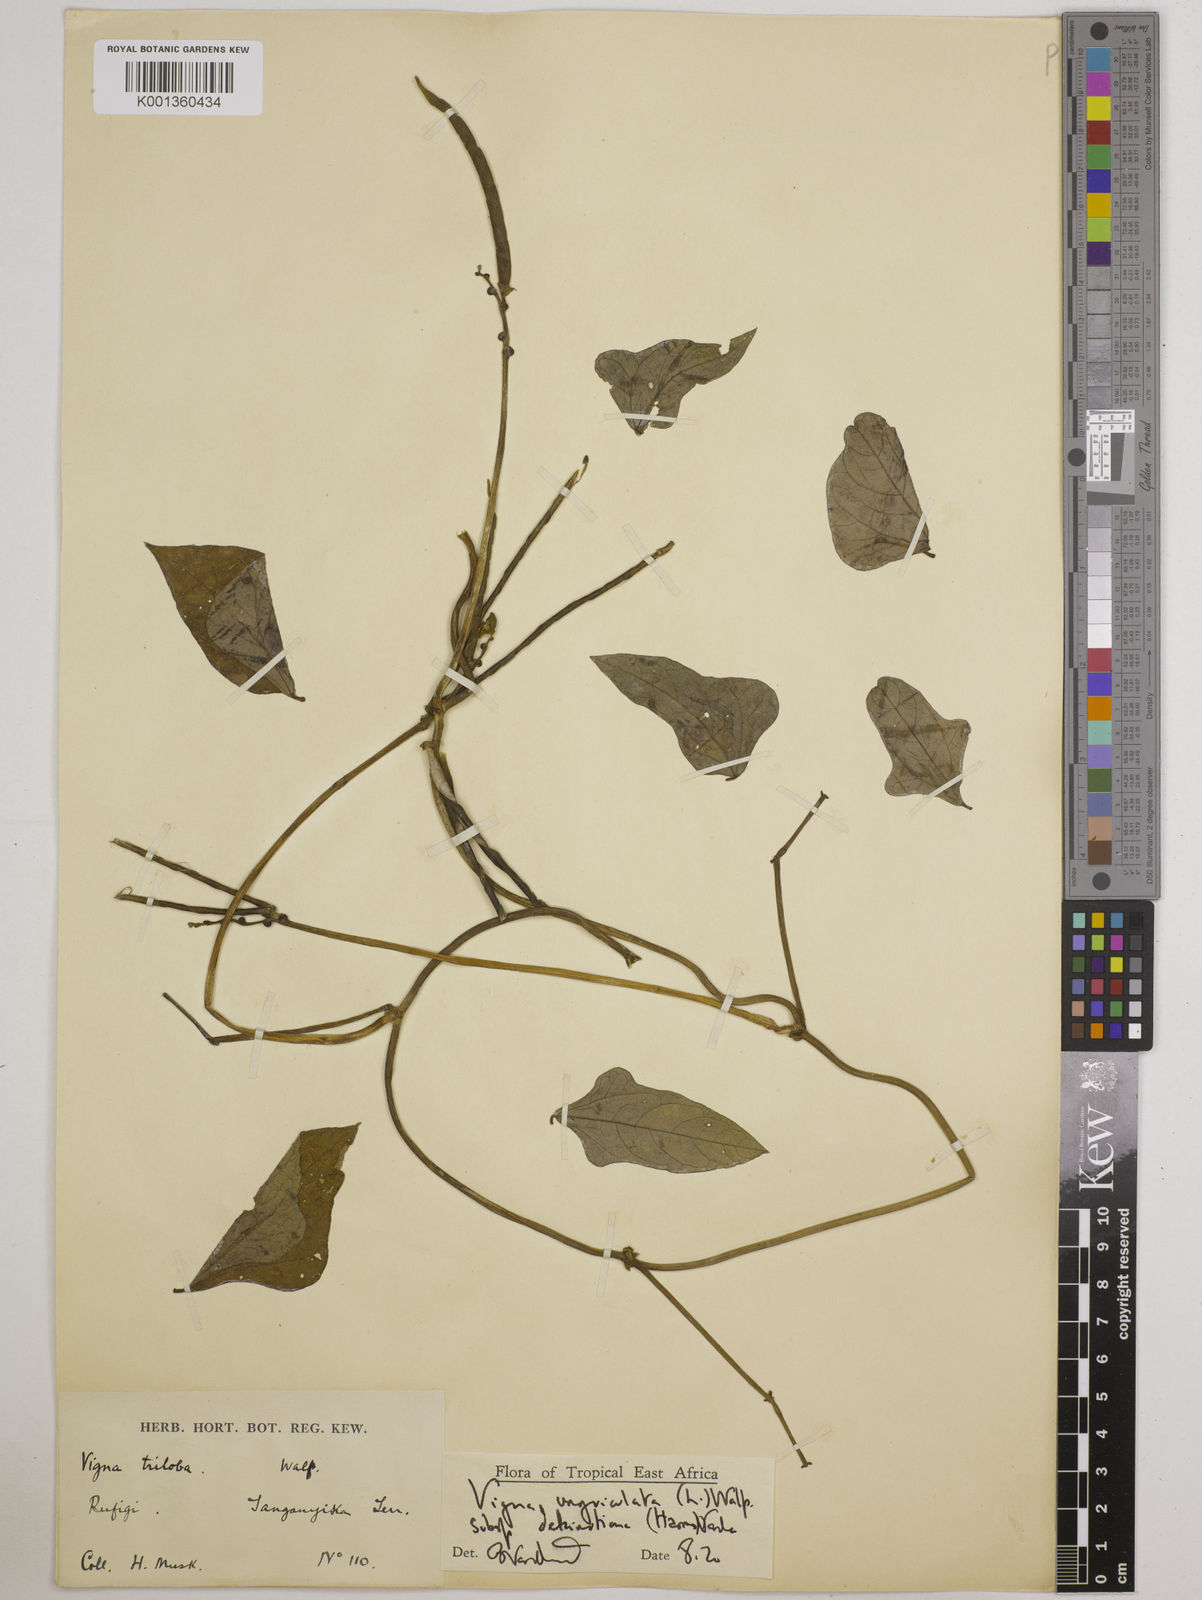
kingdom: Plantae
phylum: Tracheophyta
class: Magnoliopsida
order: Fabales
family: Fabaceae
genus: Vigna
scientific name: Vigna
